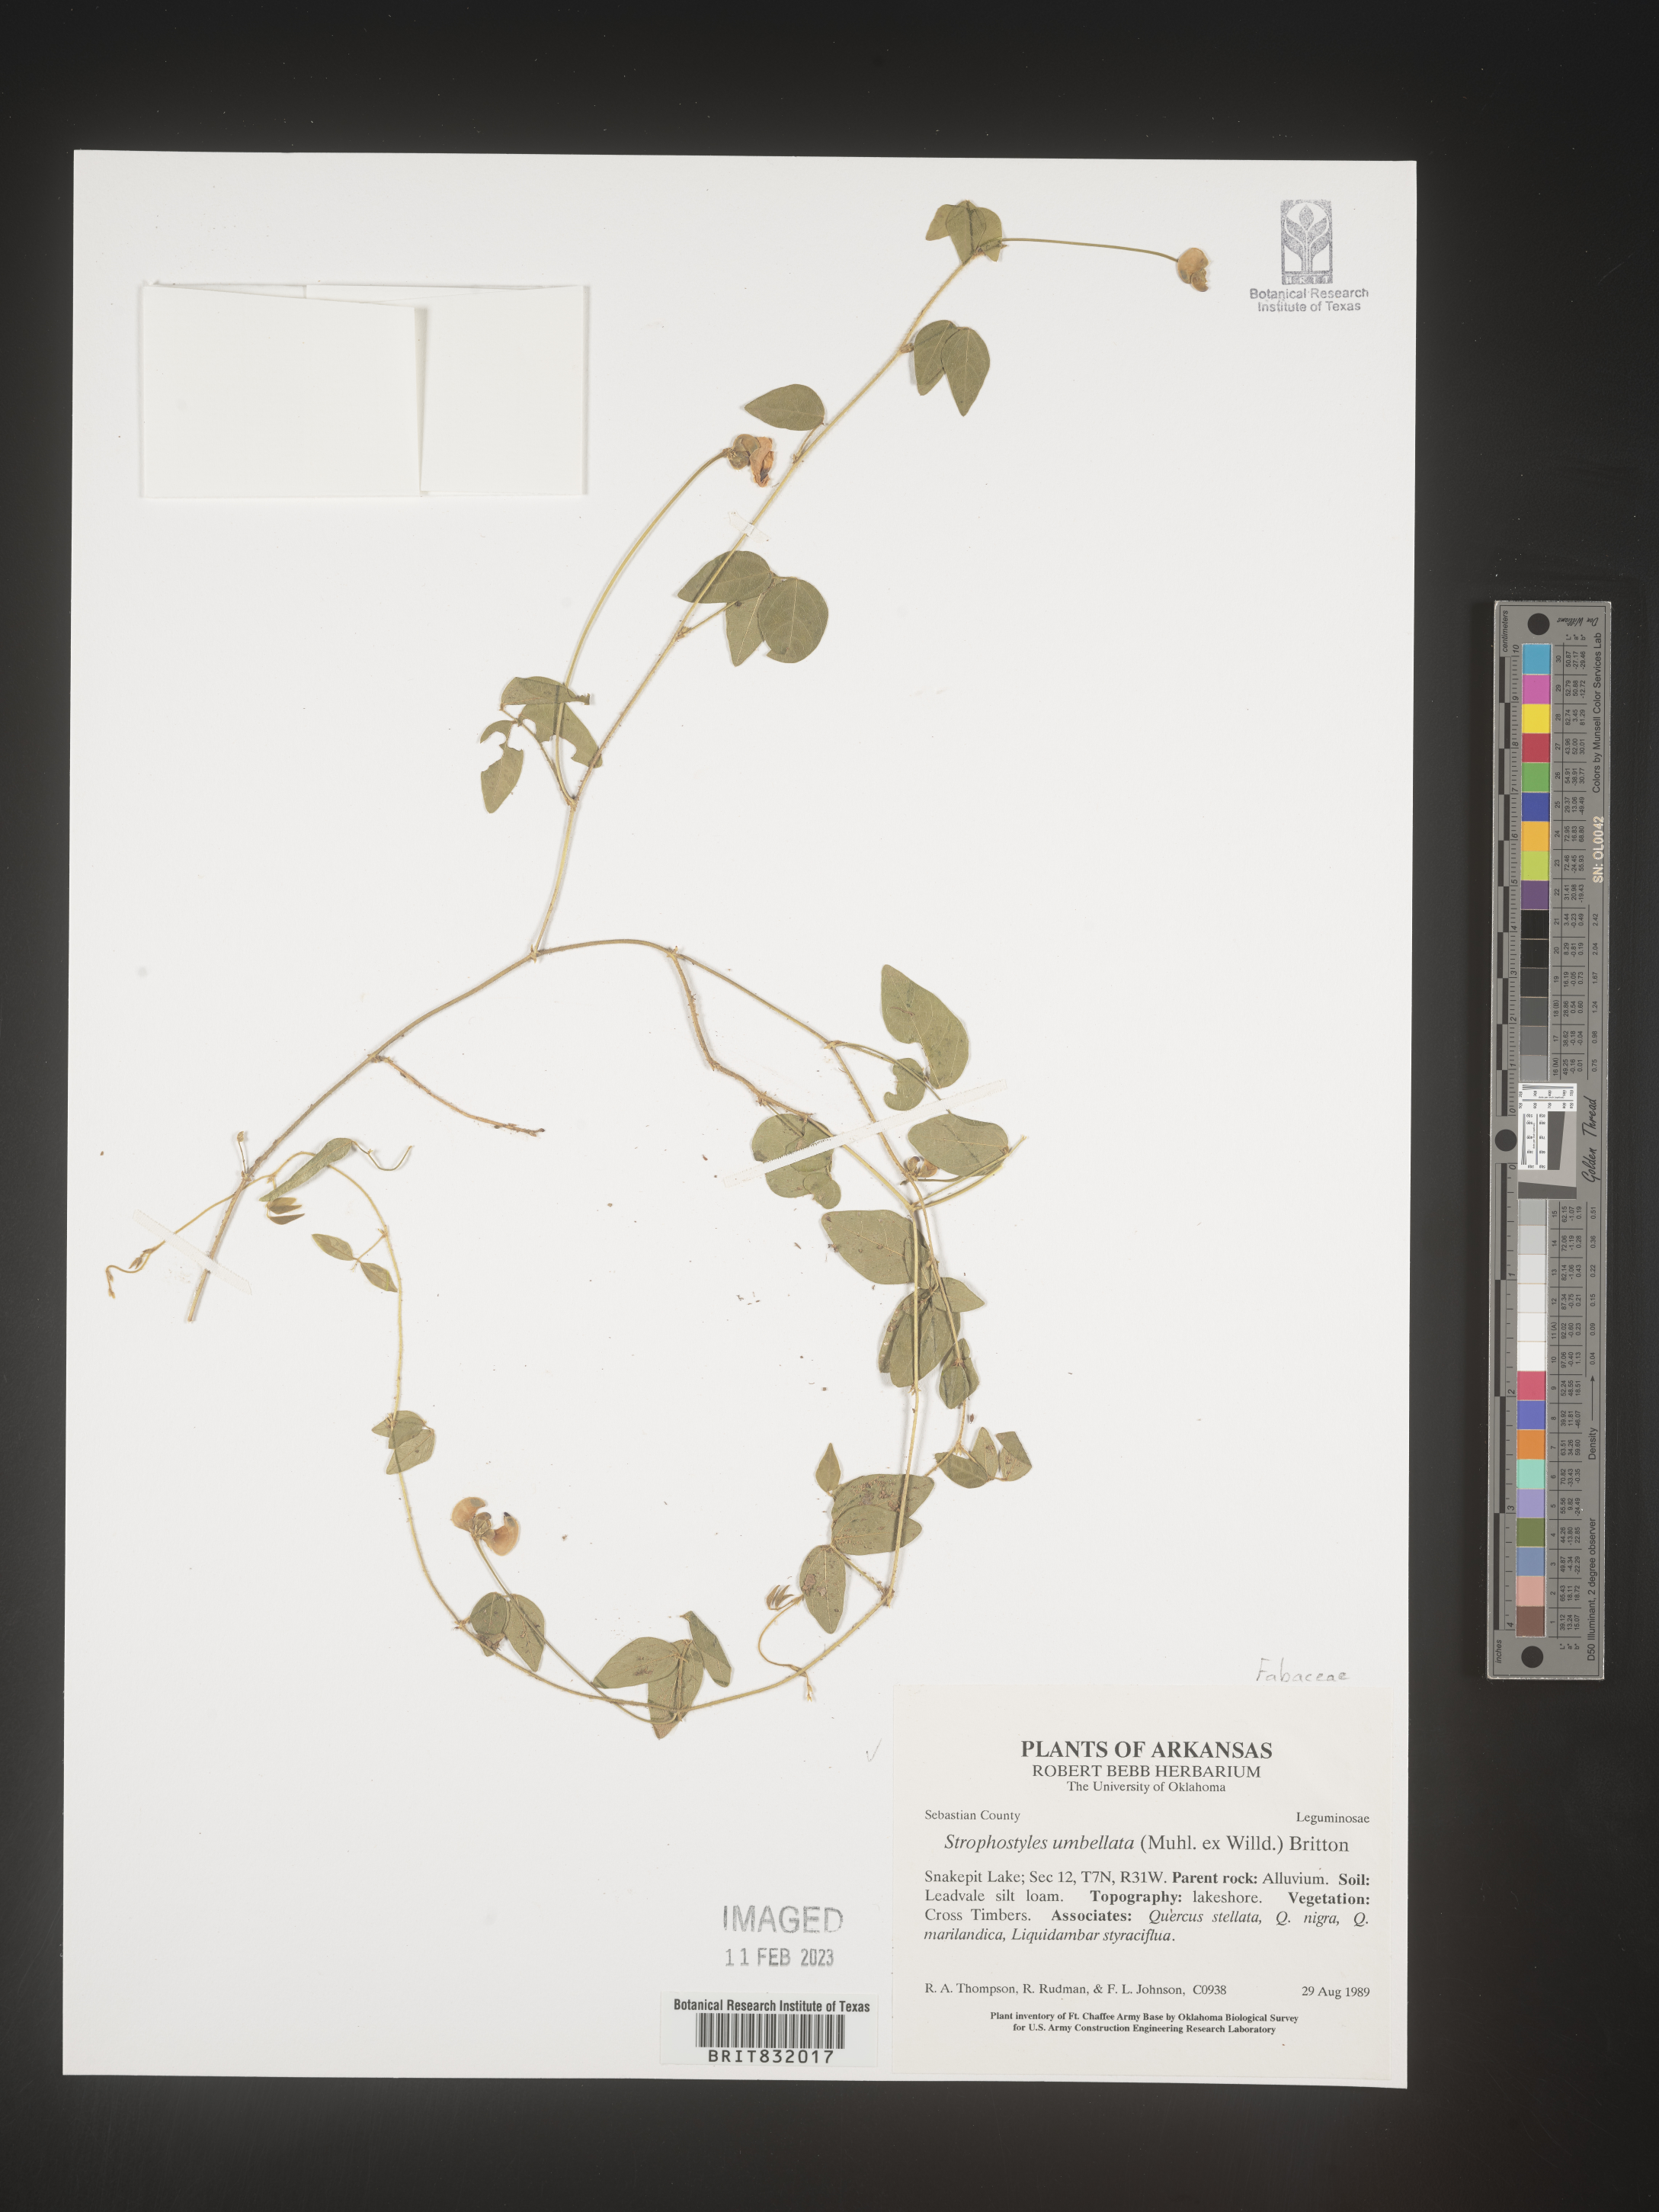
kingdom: Plantae
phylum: Tracheophyta
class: Magnoliopsida
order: Fabales
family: Fabaceae
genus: Strophostyles
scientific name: Strophostyles umbellata
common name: Perennial wild bean
